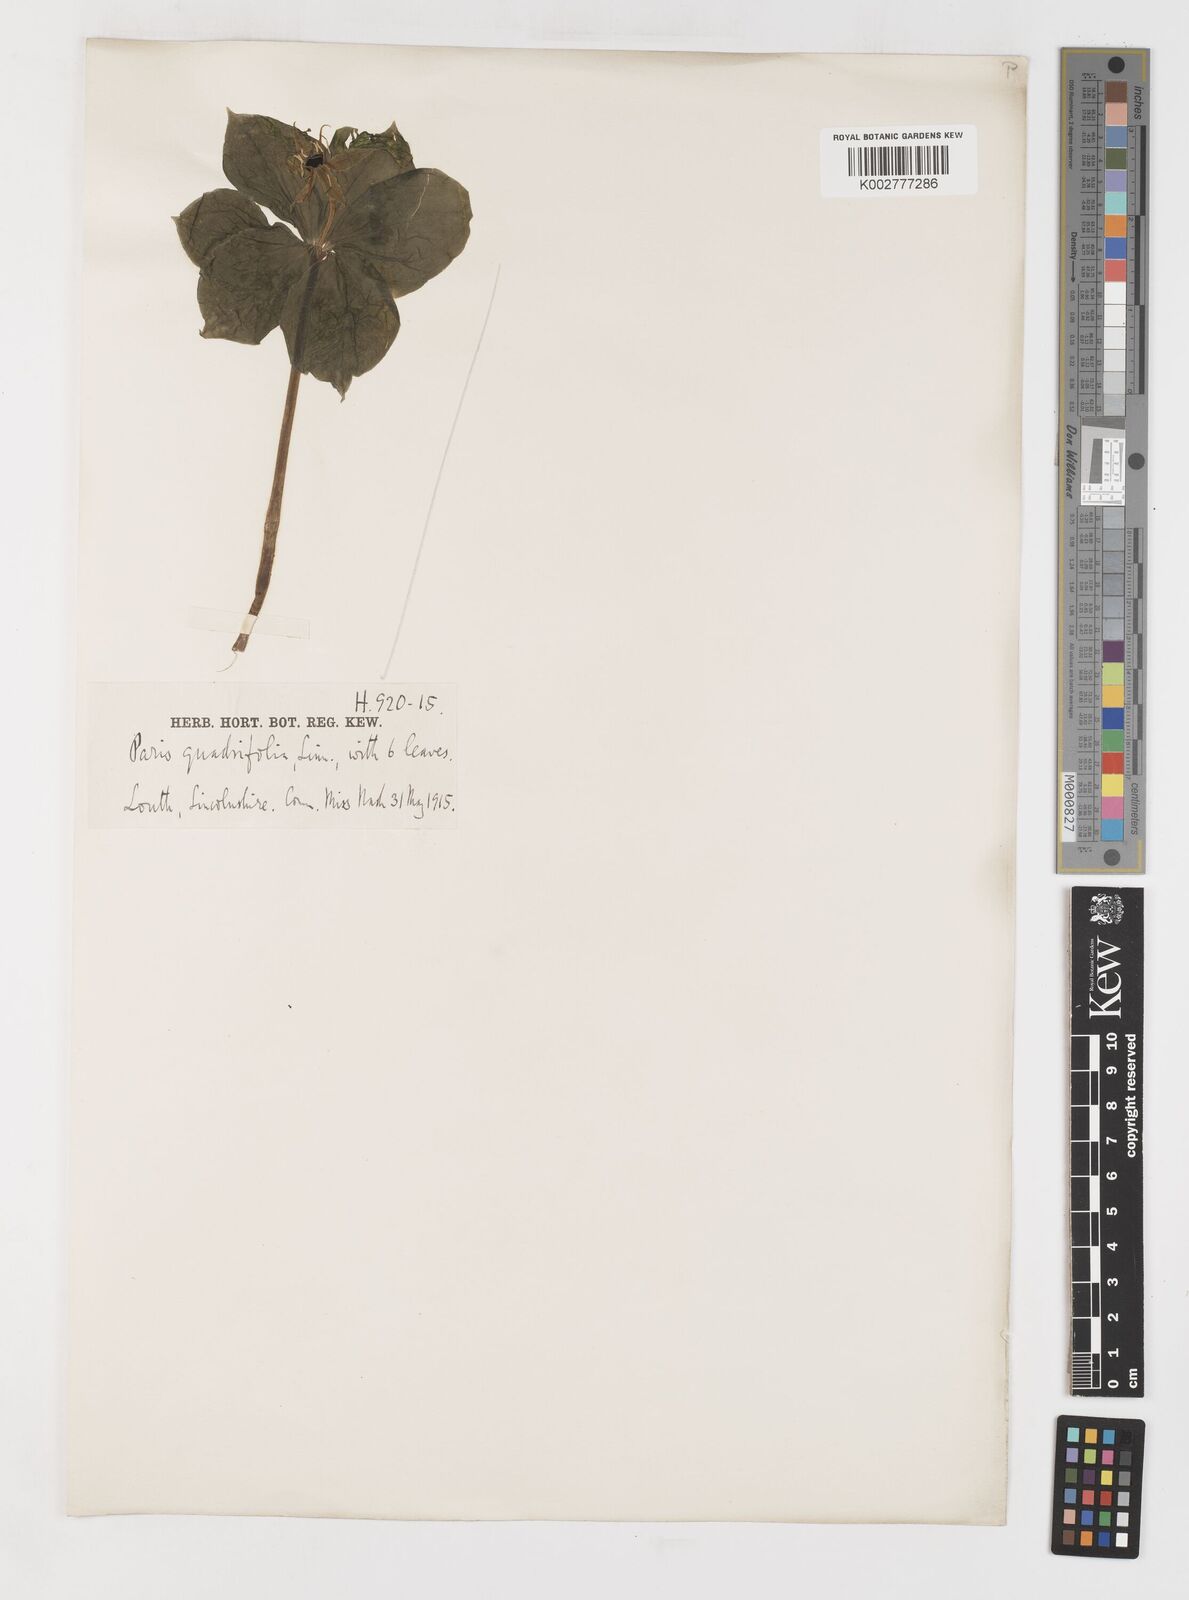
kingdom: Plantae
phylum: Tracheophyta
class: Liliopsida
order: Liliales
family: Melanthiaceae
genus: Paris
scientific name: Paris quadrifolia
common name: Herb-paris
